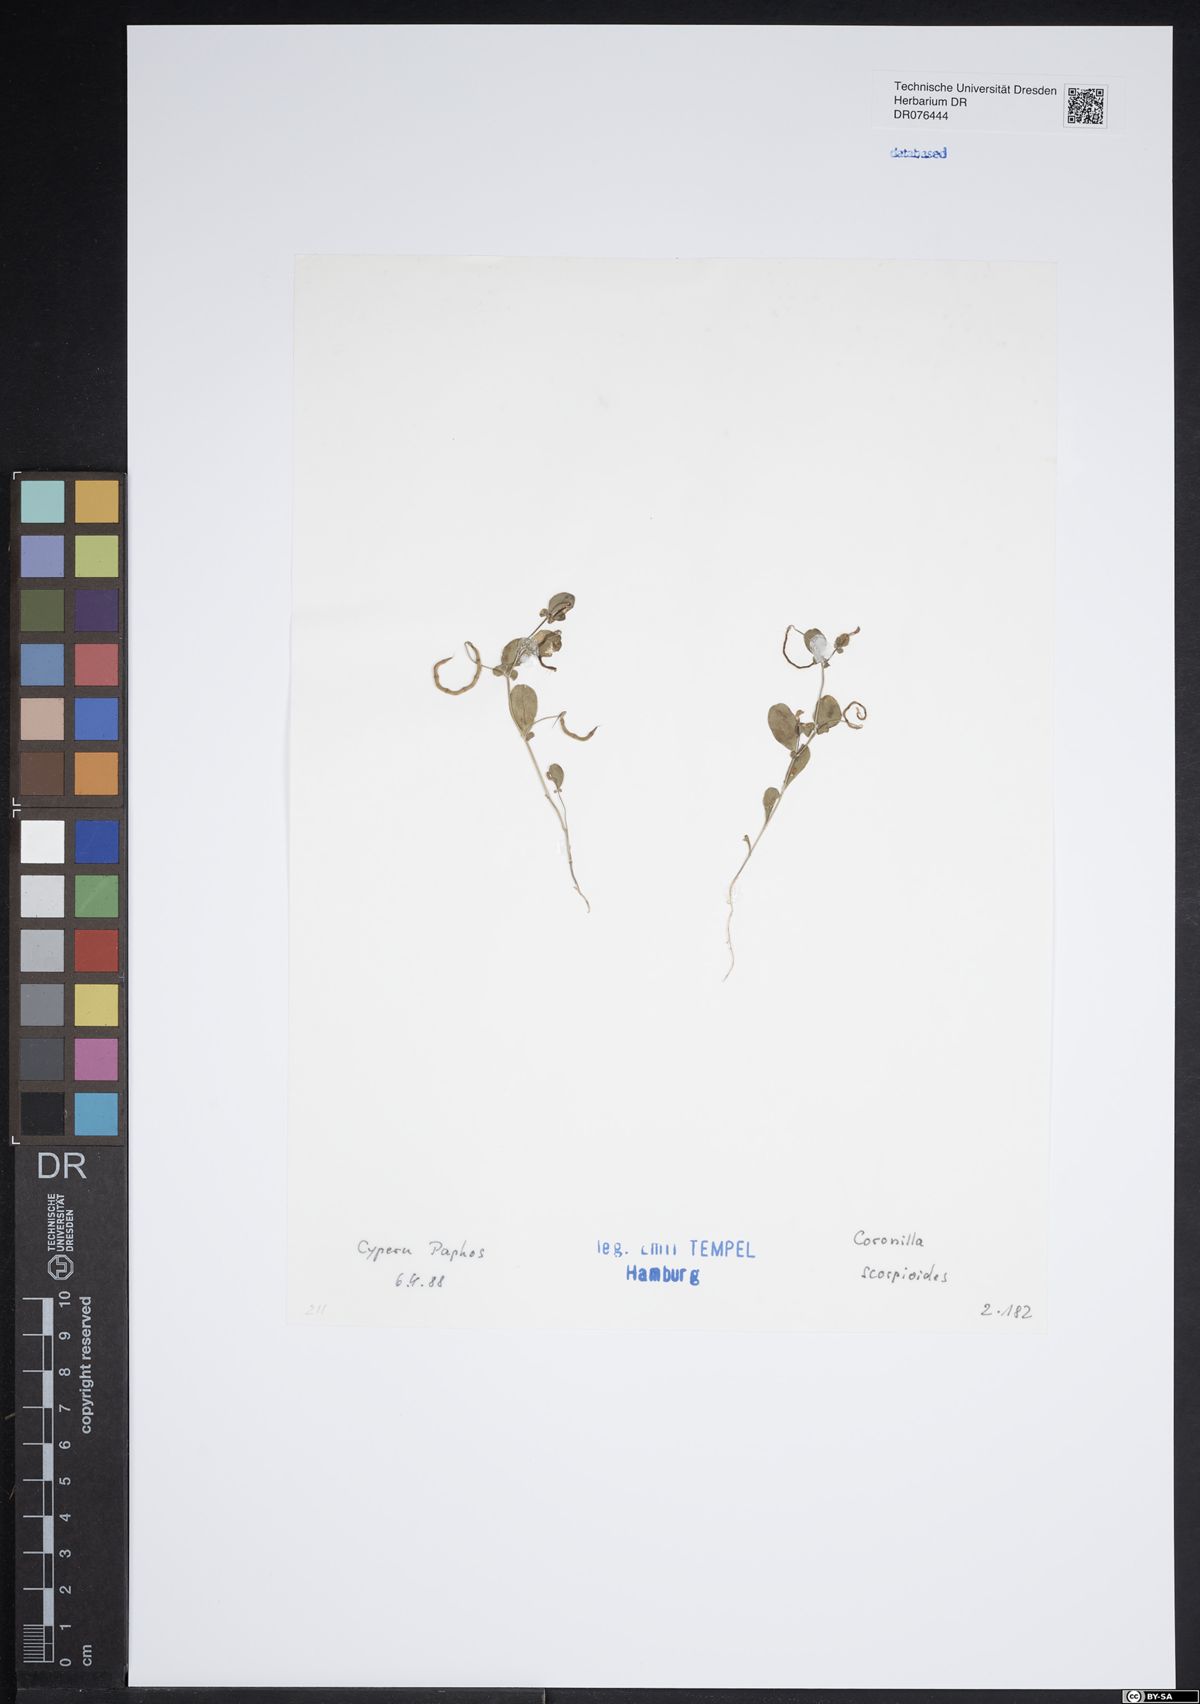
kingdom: Plantae
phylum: Tracheophyta
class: Magnoliopsida
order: Fabales
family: Fabaceae
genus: Coronilla
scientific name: Coronilla scorpioides
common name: Annual scorpion-vetch
